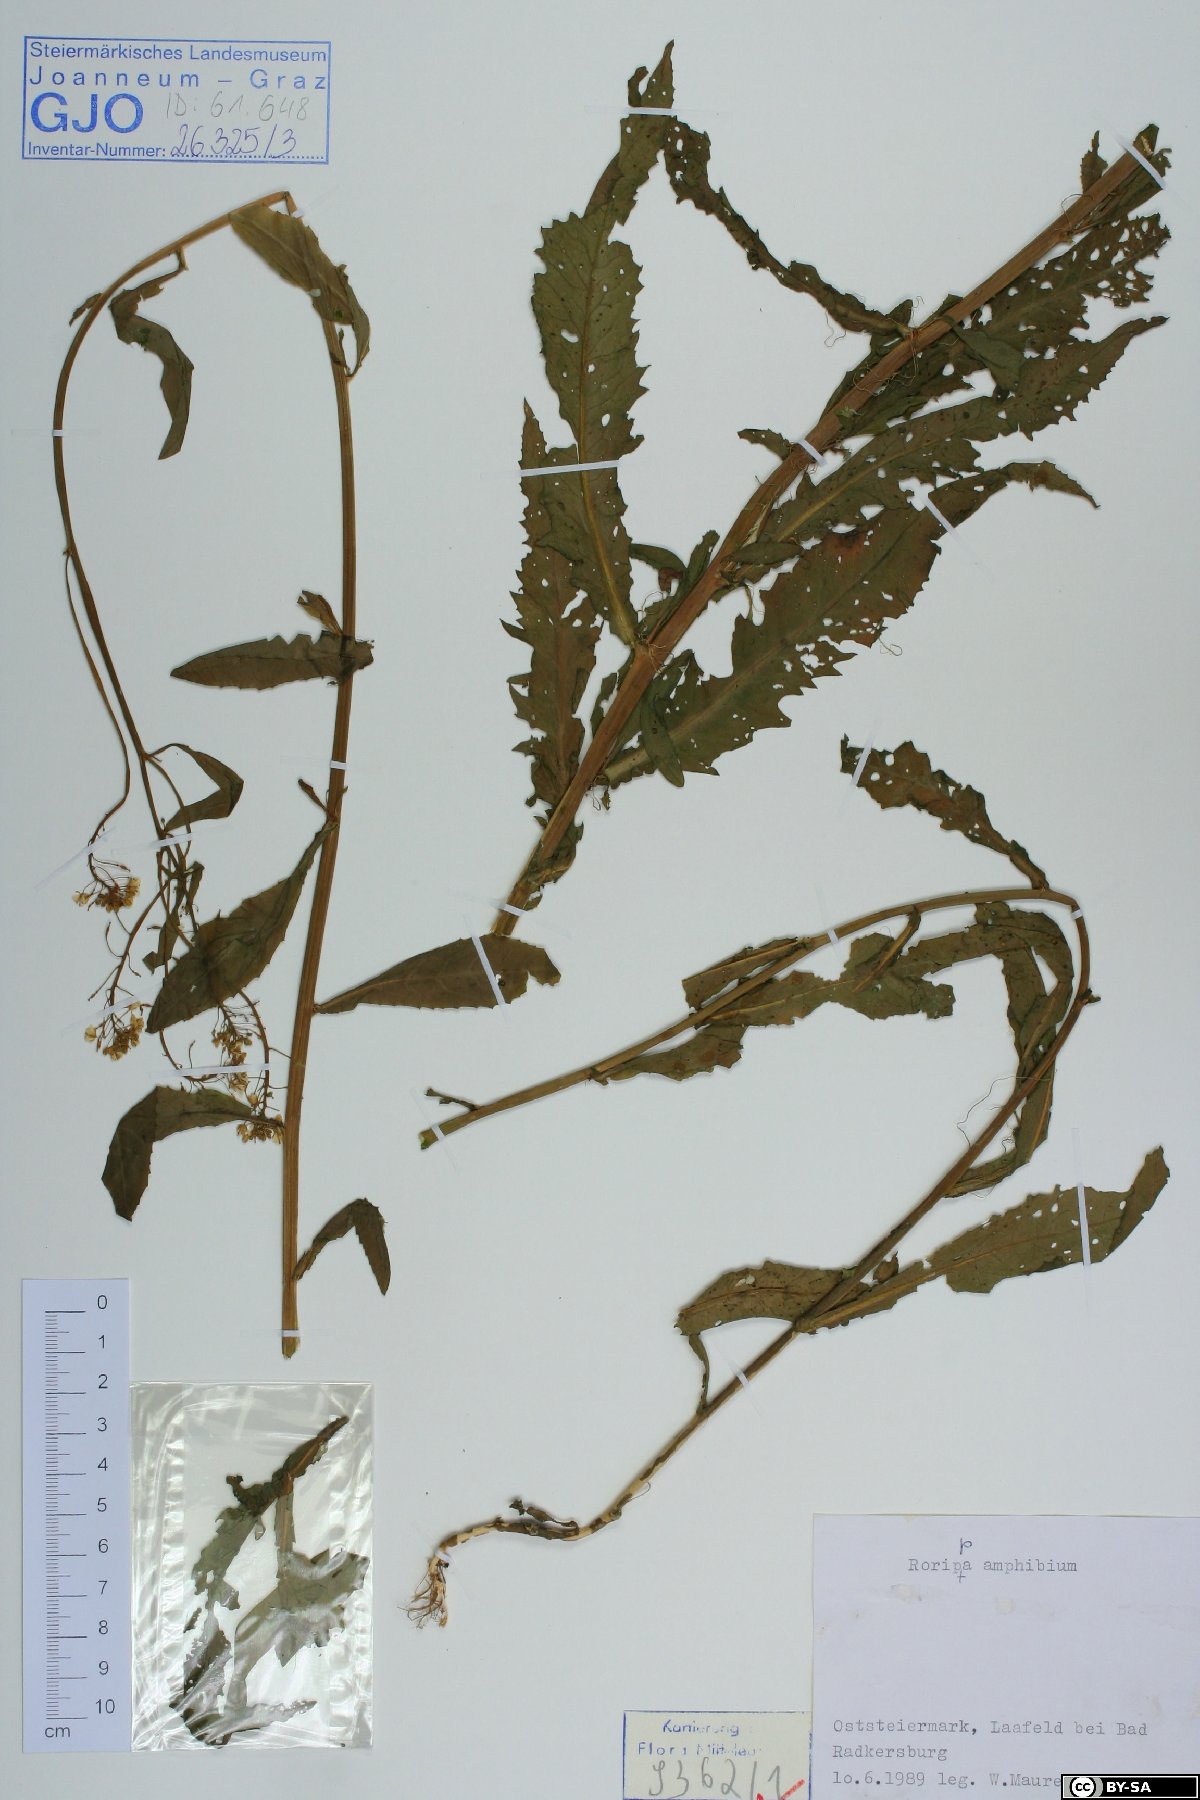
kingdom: Plantae
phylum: Tracheophyta
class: Magnoliopsida
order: Brassicales
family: Brassicaceae
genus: Rorippa
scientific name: Rorippa amphibia
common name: Great yellow-cress
